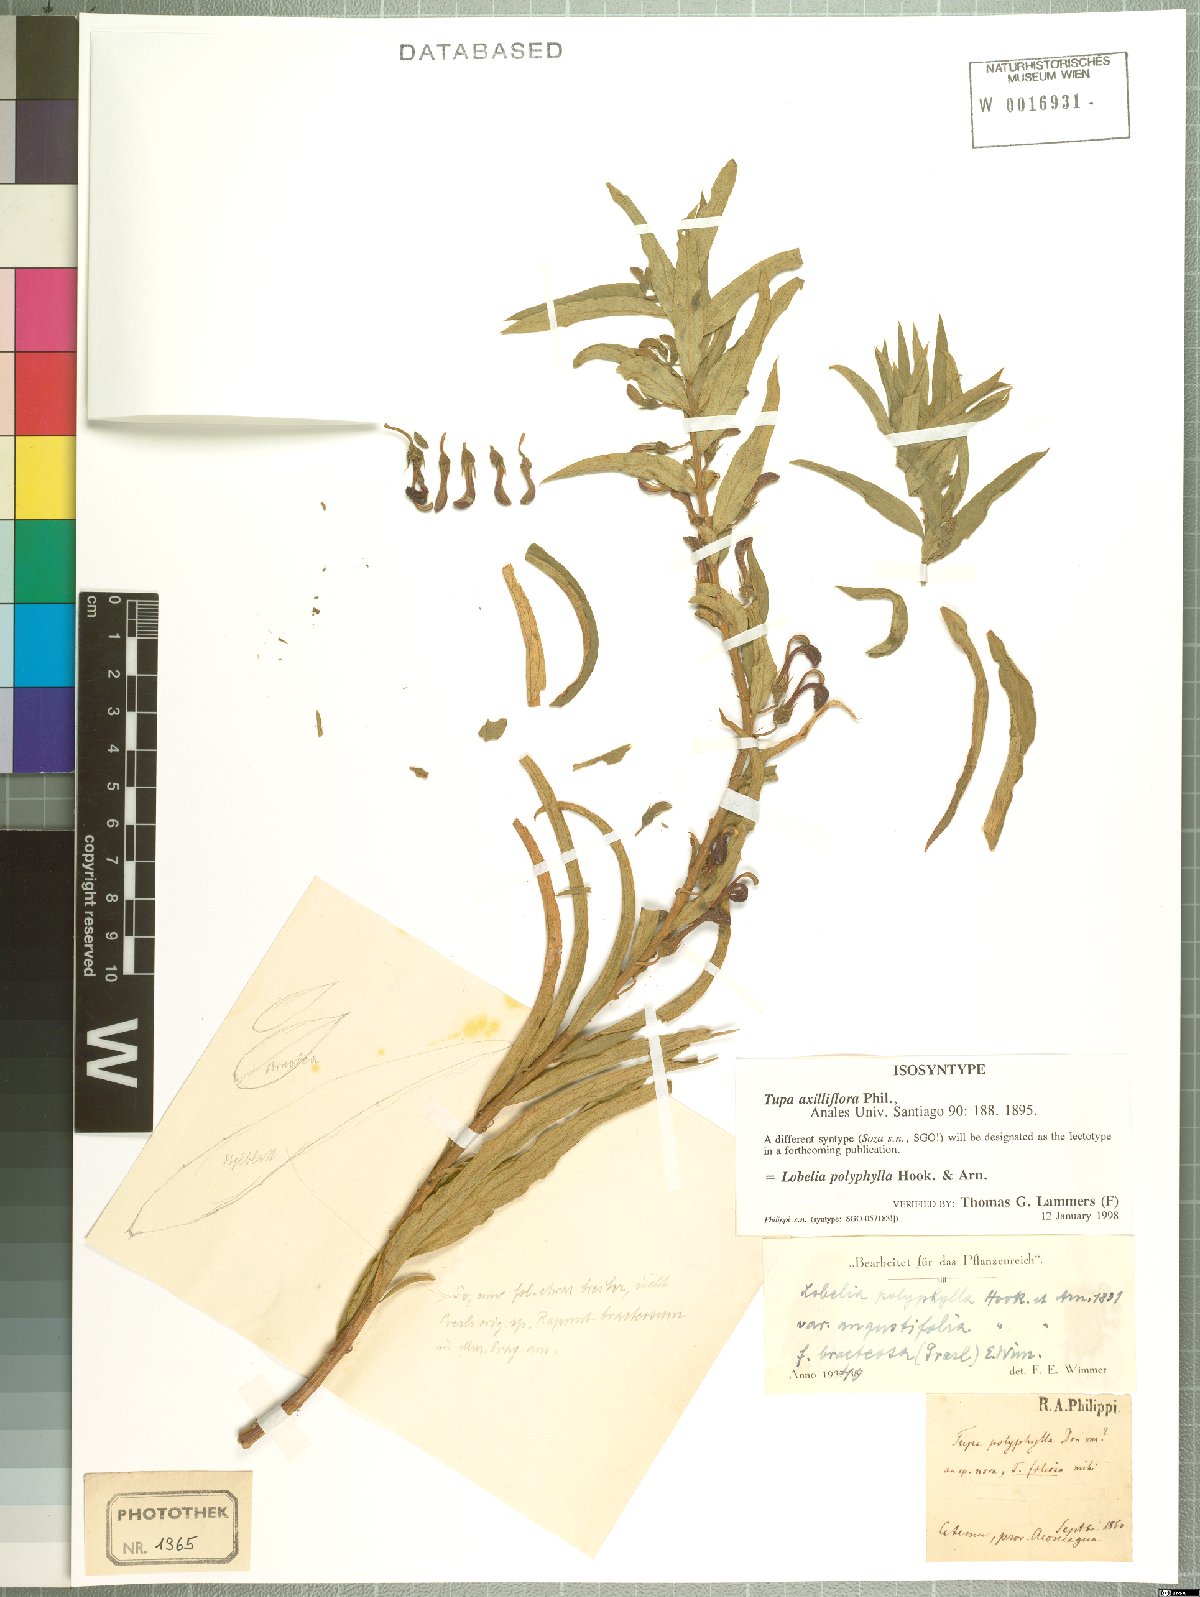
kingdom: Plantae
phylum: Tracheophyta
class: Magnoliopsida
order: Asterales
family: Campanulaceae
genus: Lobelia
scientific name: Lobelia polyphylla
